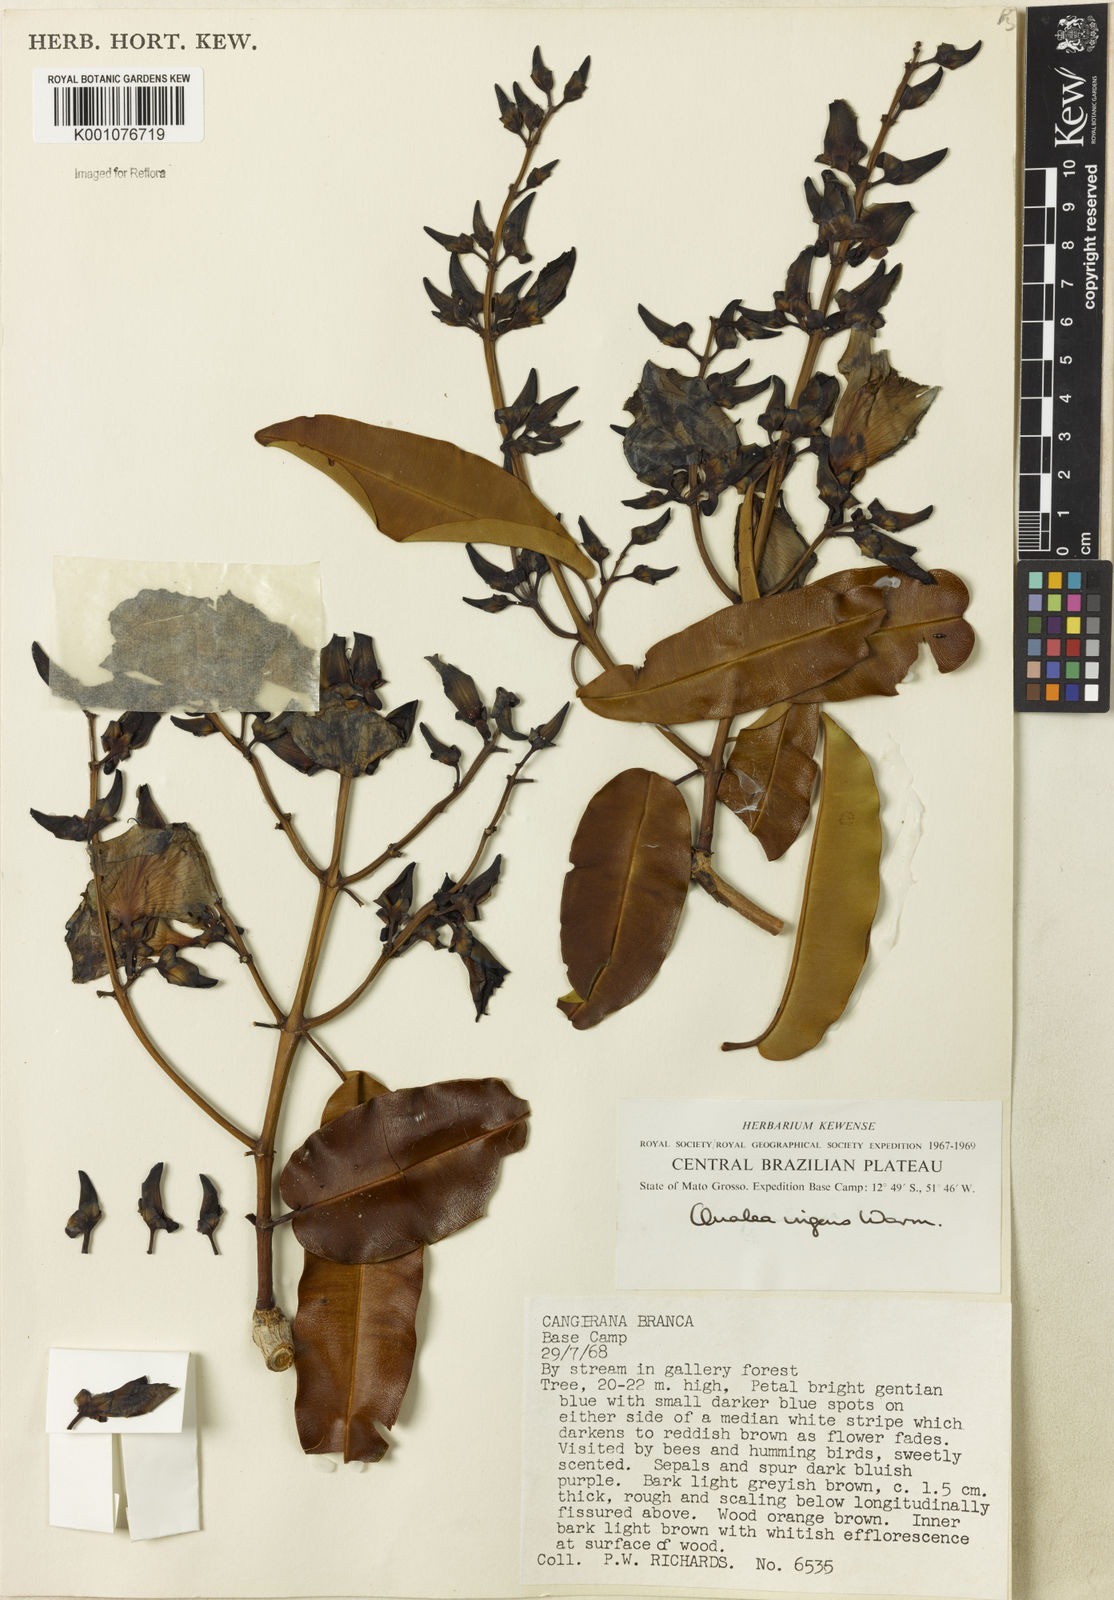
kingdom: Plantae
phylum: Tracheophyta
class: Magnoliopsida
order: Myrtales
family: Vochysiaceae
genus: Qualea
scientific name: Qualea ingens
